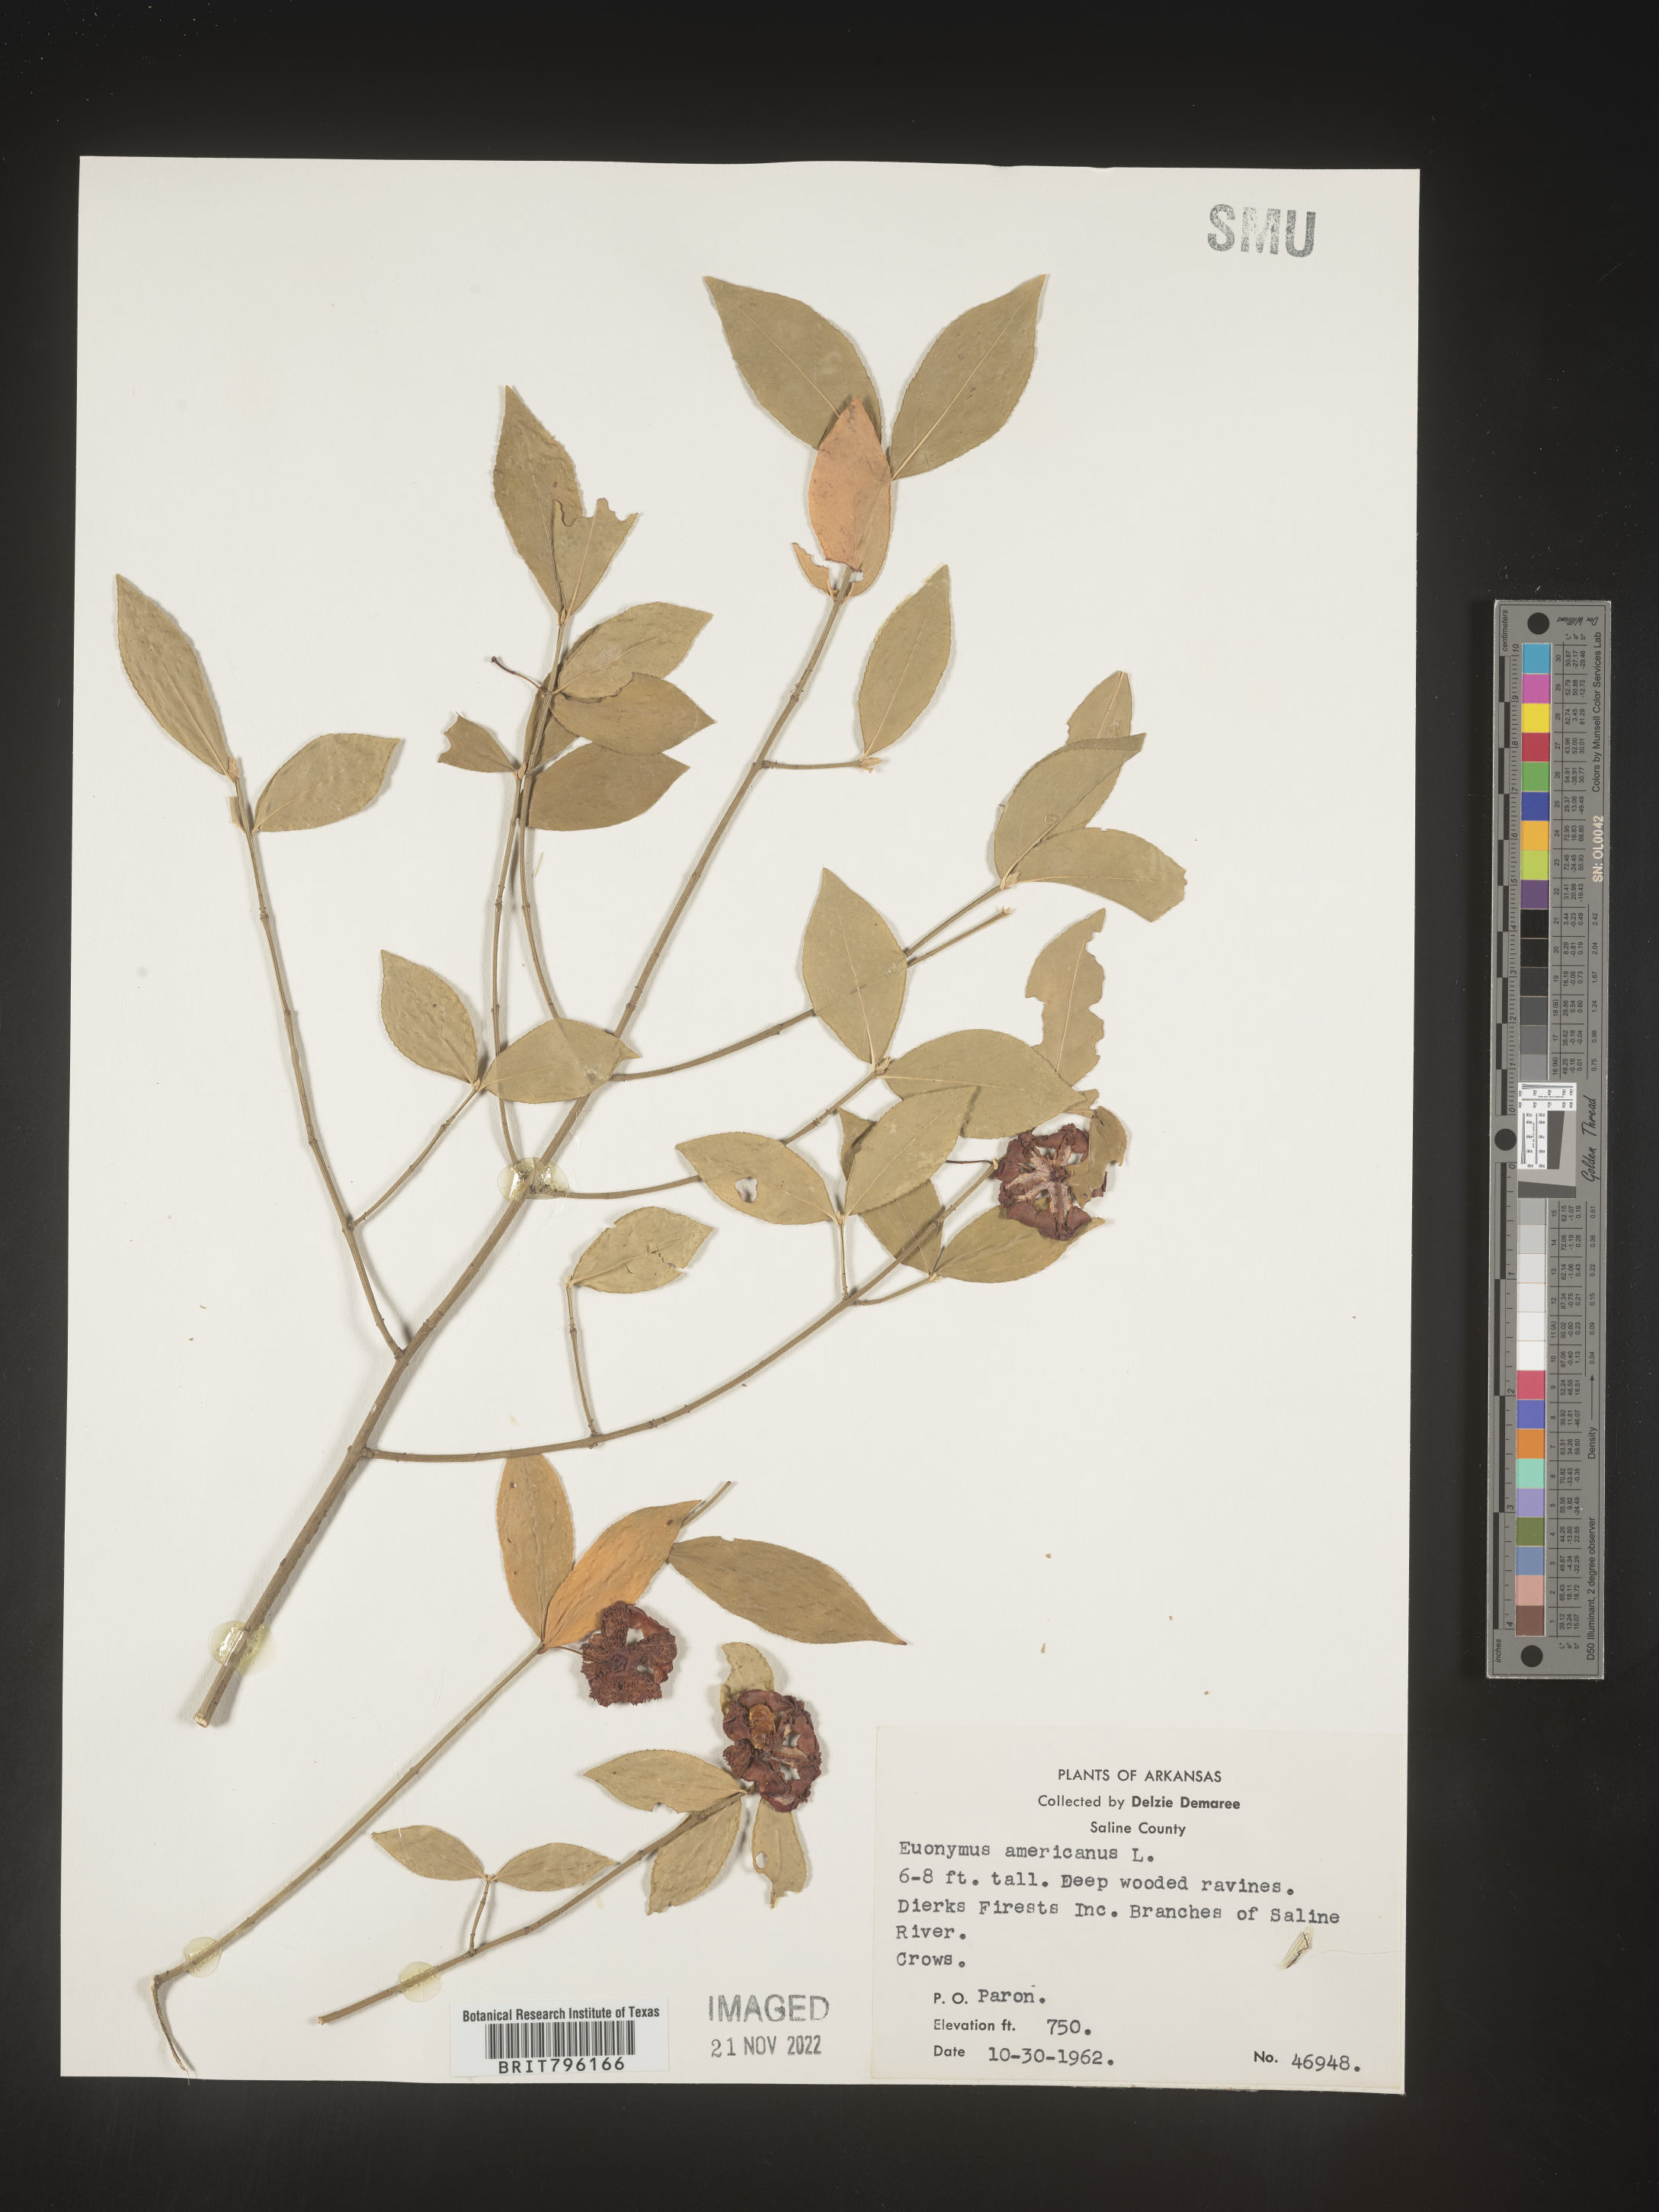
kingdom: Plantae
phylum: Tracheophyta
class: Magnoliopsida
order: Celastrales
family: Celastraceae
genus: Euonymus
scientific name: Euonymus americanus
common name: Bursting-heart
